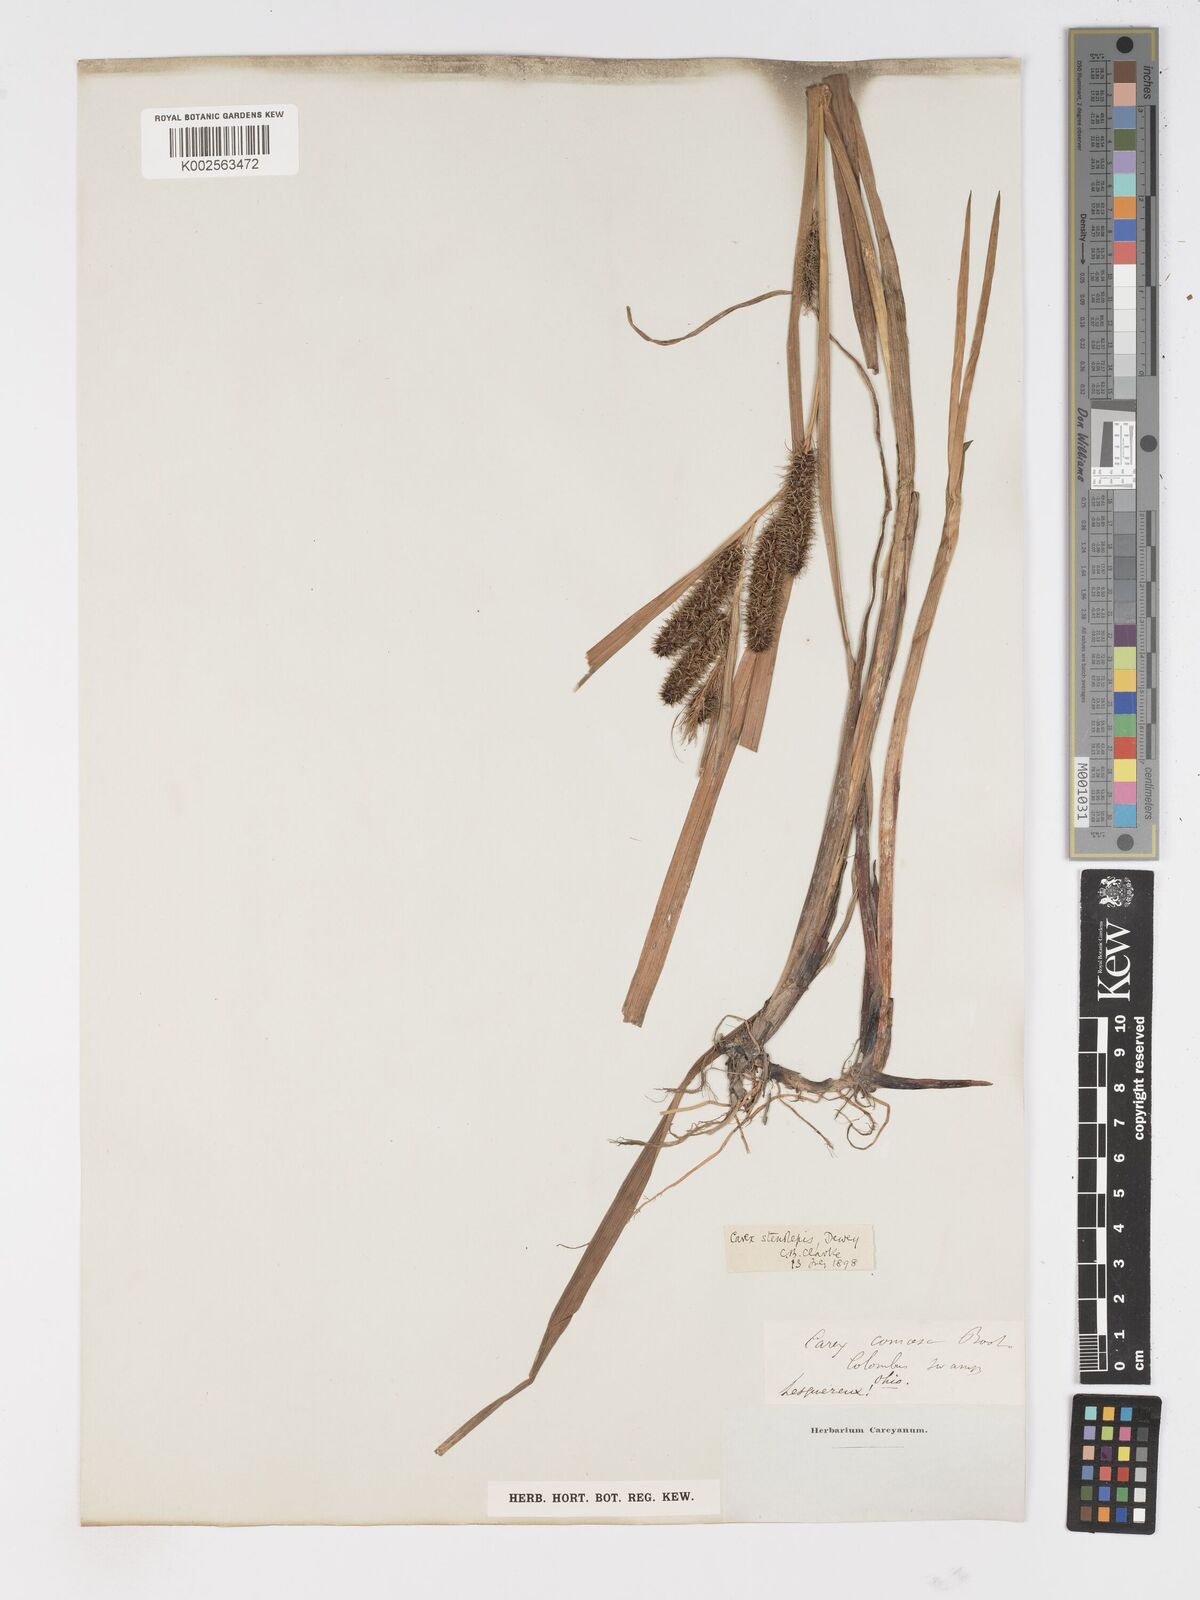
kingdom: Plantae
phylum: Tracheophyta
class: Liliopsida
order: Poales
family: Cyperaceae
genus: Carex
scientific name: Carex frankii
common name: Frank's sedge
